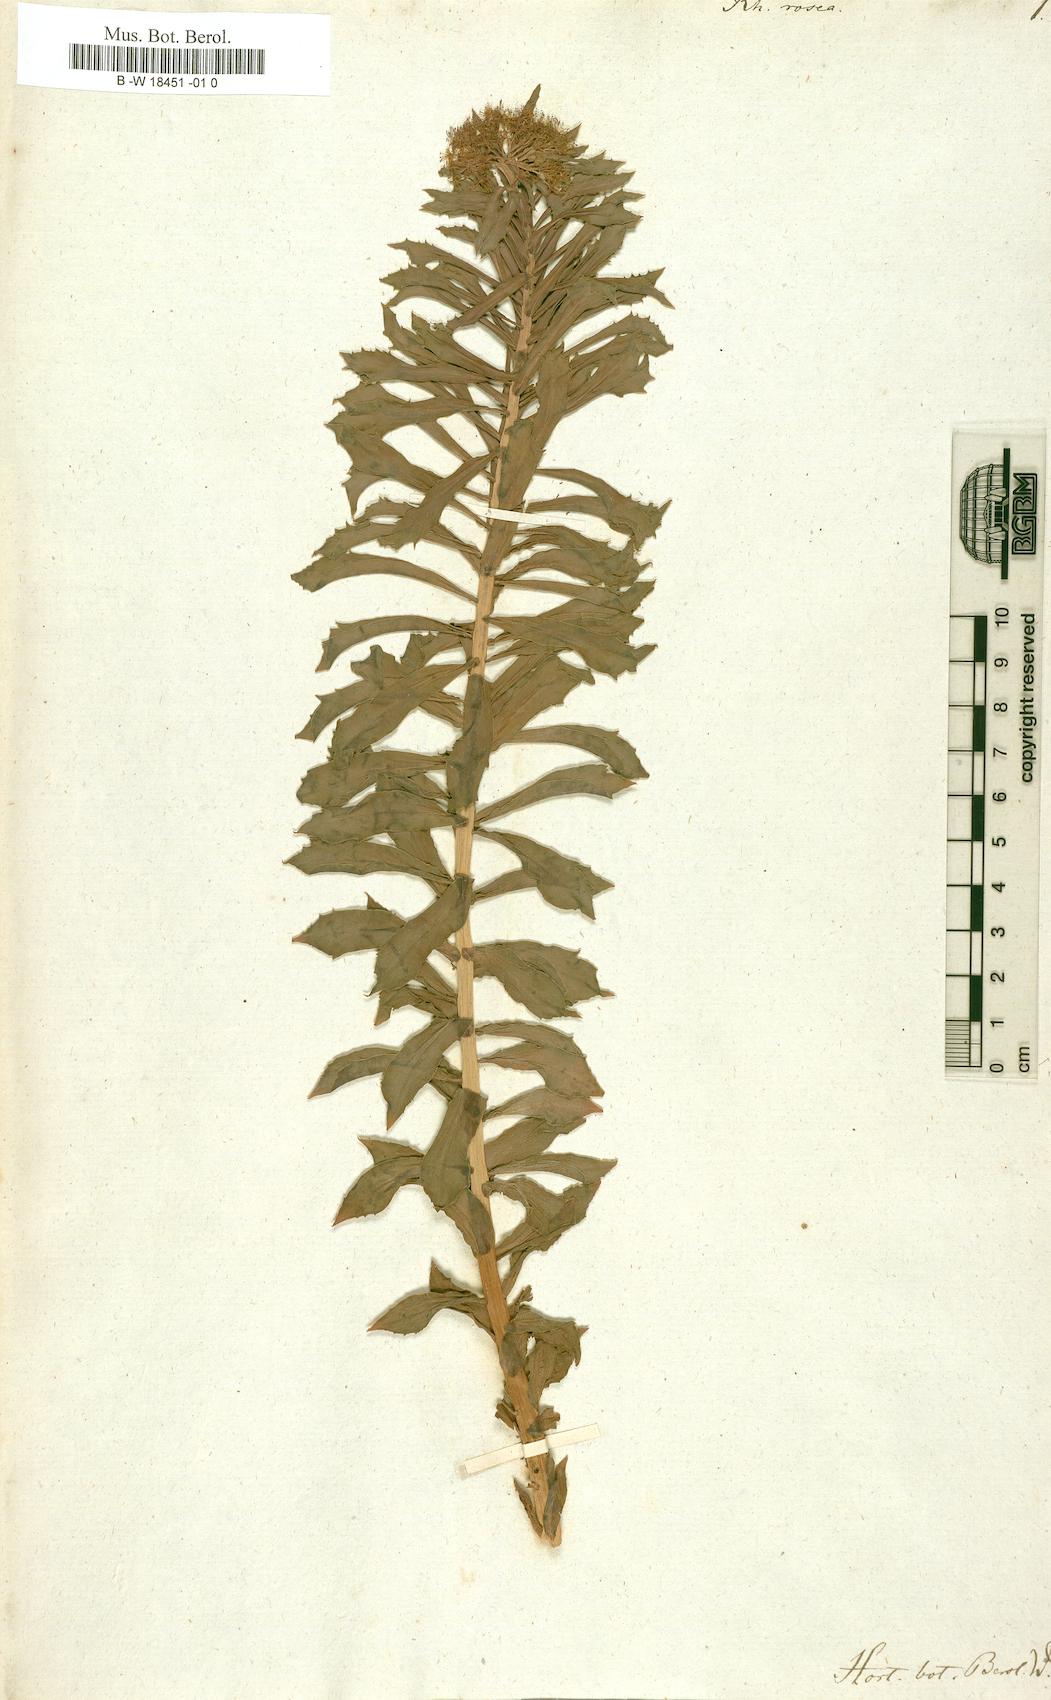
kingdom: Plantae
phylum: Tracheophyta
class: Magnoliopsida
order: Saxifragales
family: Crassulaceae
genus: Rhodiola
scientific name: Rhodiola rosea
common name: Roseroot
